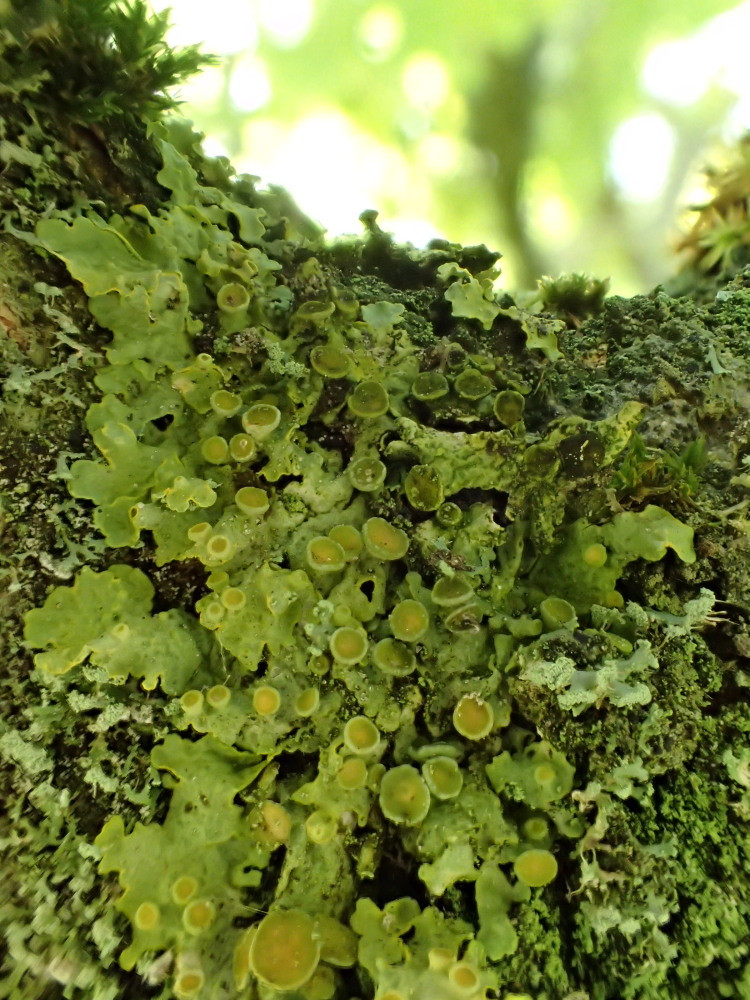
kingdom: Fungi
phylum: Ascomycota
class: Lecanoromycetes
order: Teloschistales
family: Teloschistaceae
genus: Xanthoria
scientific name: Xanthoria parietina
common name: almindelig væggelav
